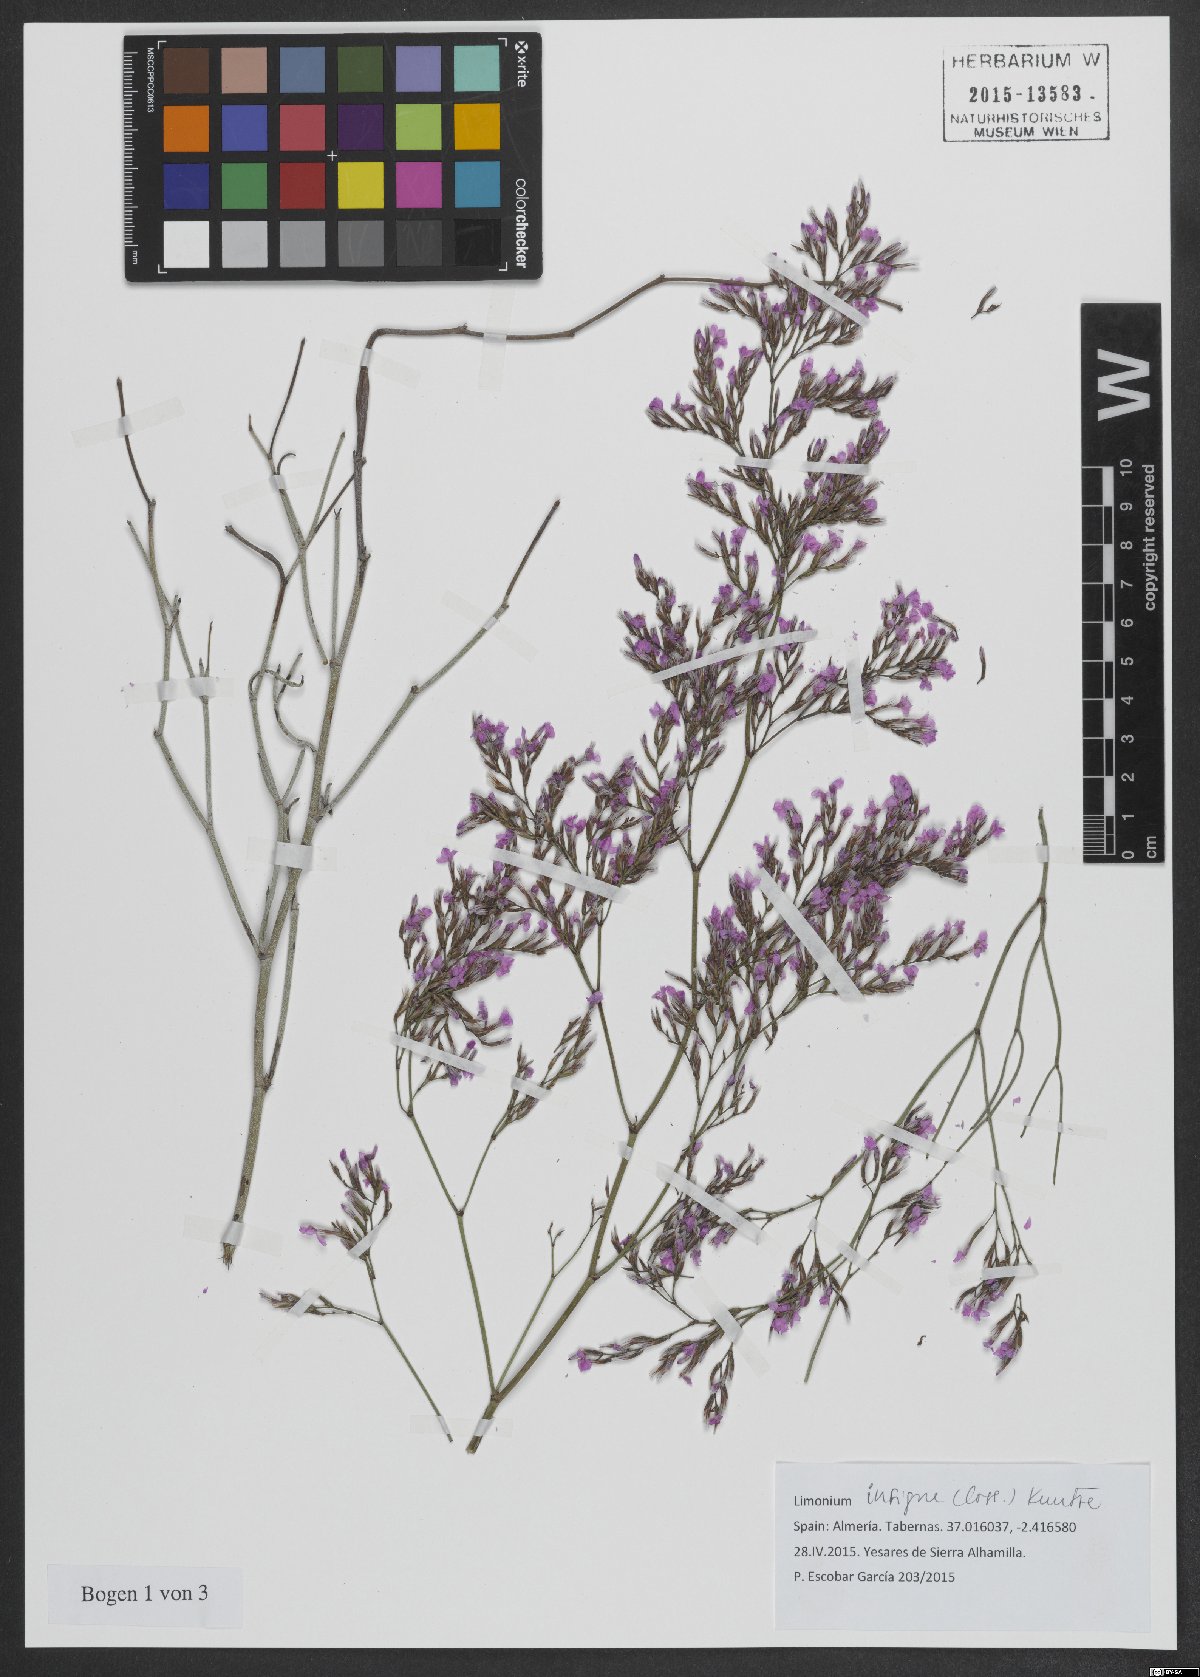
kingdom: Plantae
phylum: Tracheophyta
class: Magnoliopsida
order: Caryophyllales
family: Plumbaginaceae
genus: Limonium
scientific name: Limonium insigne
